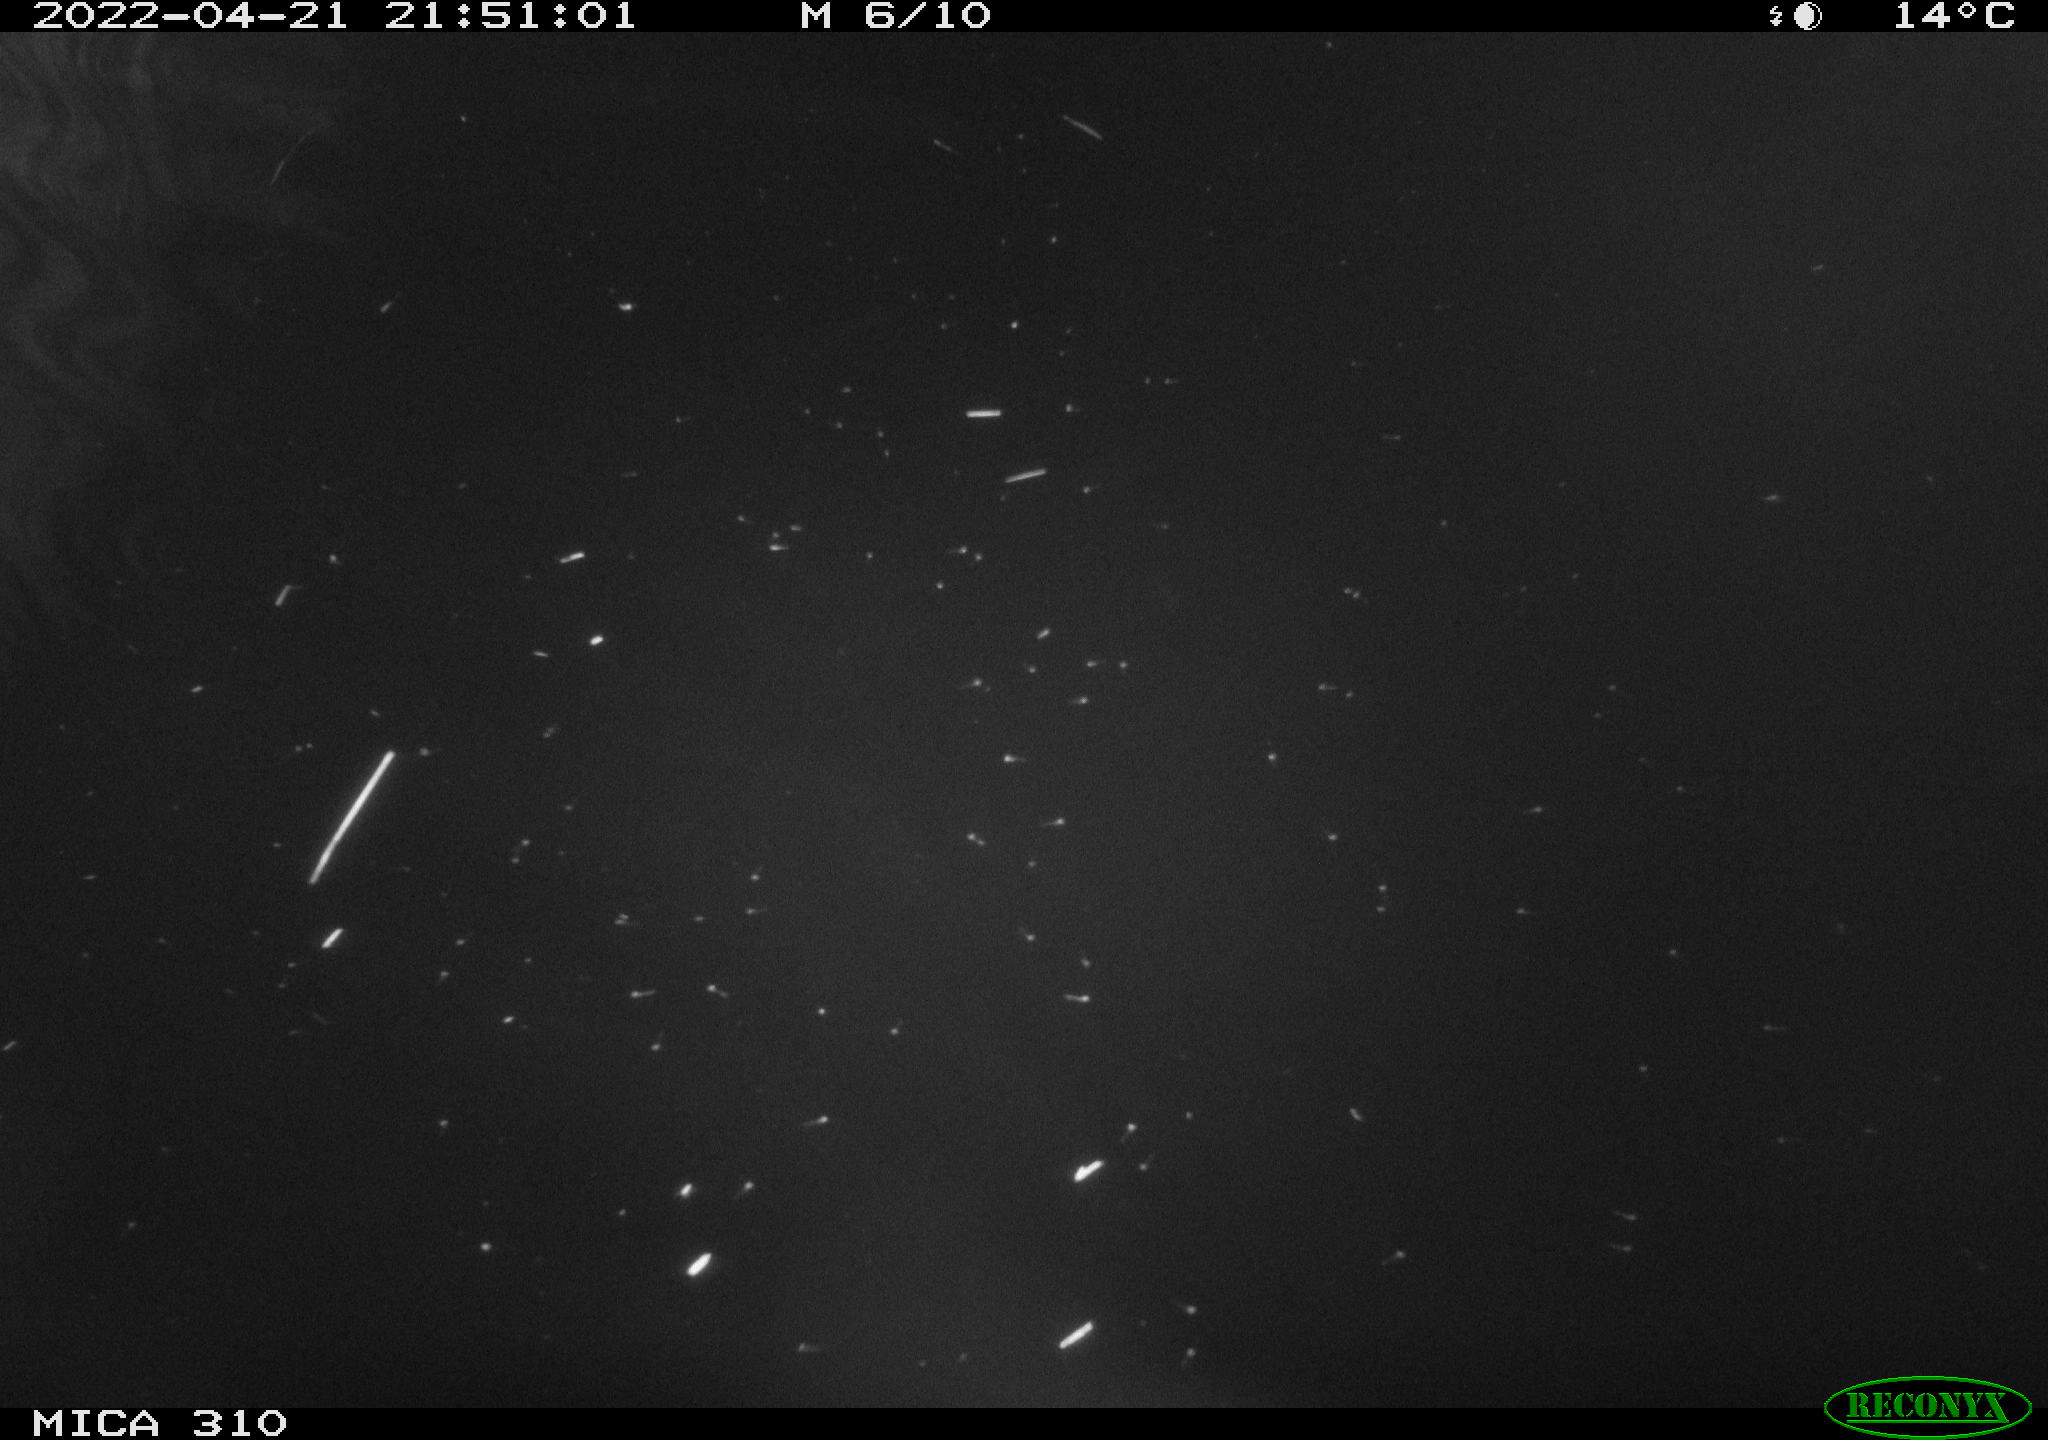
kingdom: Animalia
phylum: Chordata
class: Aves
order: Anseriformes
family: Anatidae
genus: Anas
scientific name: Anas platyrhynchos
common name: Mallard
